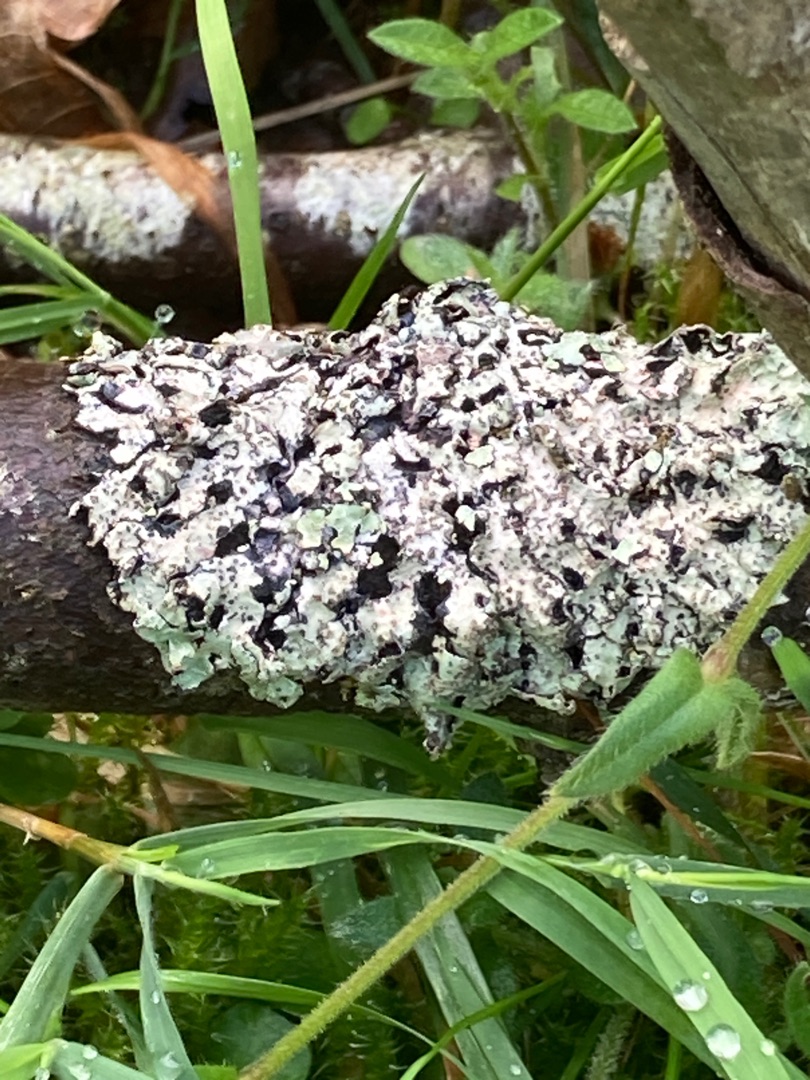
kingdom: Fungi
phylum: Ascomycota
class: Lecanoromycetes
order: Lecanorales
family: Parmeliaceae
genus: Parmelia
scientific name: Parmelia sulcata
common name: Rynket skållav
